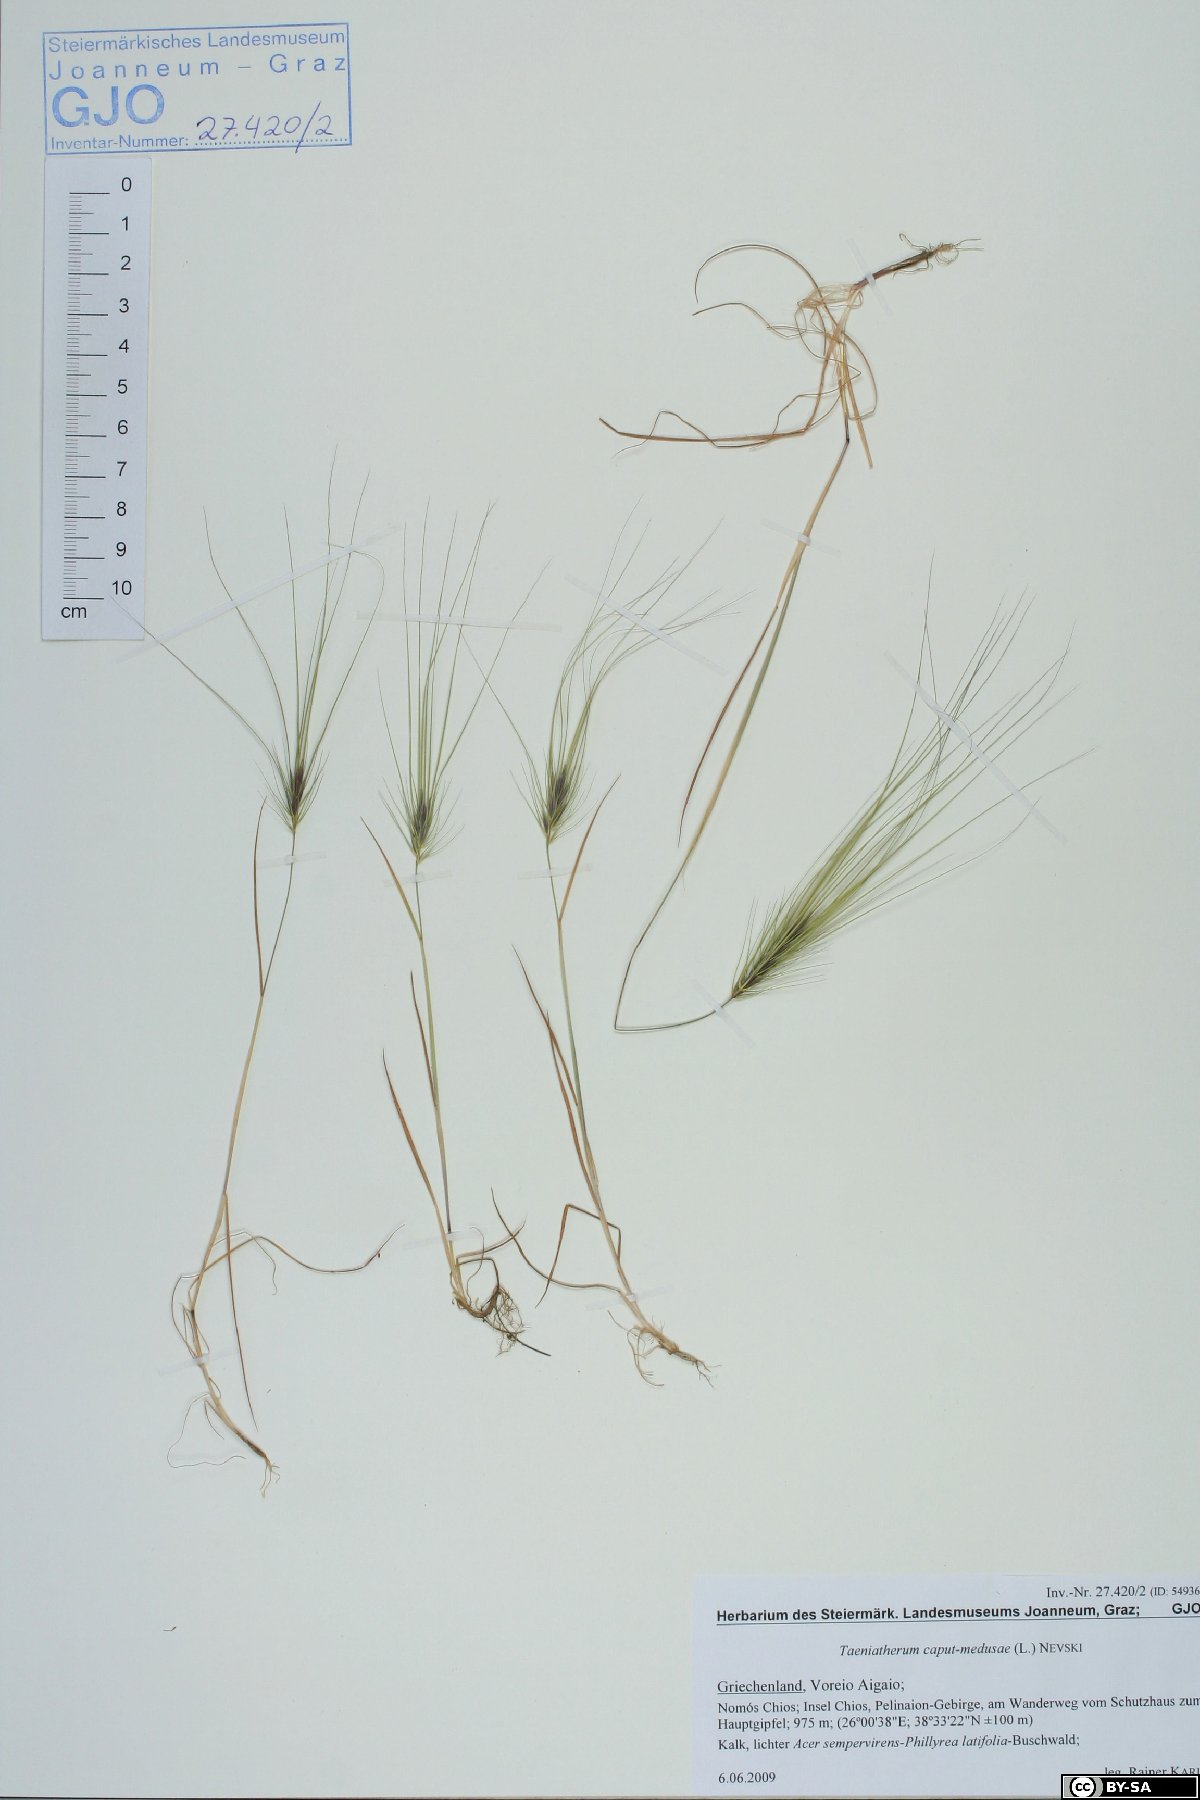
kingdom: Plantae
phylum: Tracheophyta
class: Liliopsida
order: Poales
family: Poaceae
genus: Taeniatherum
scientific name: Taeniatherum caput-medusae
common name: Medusahead
